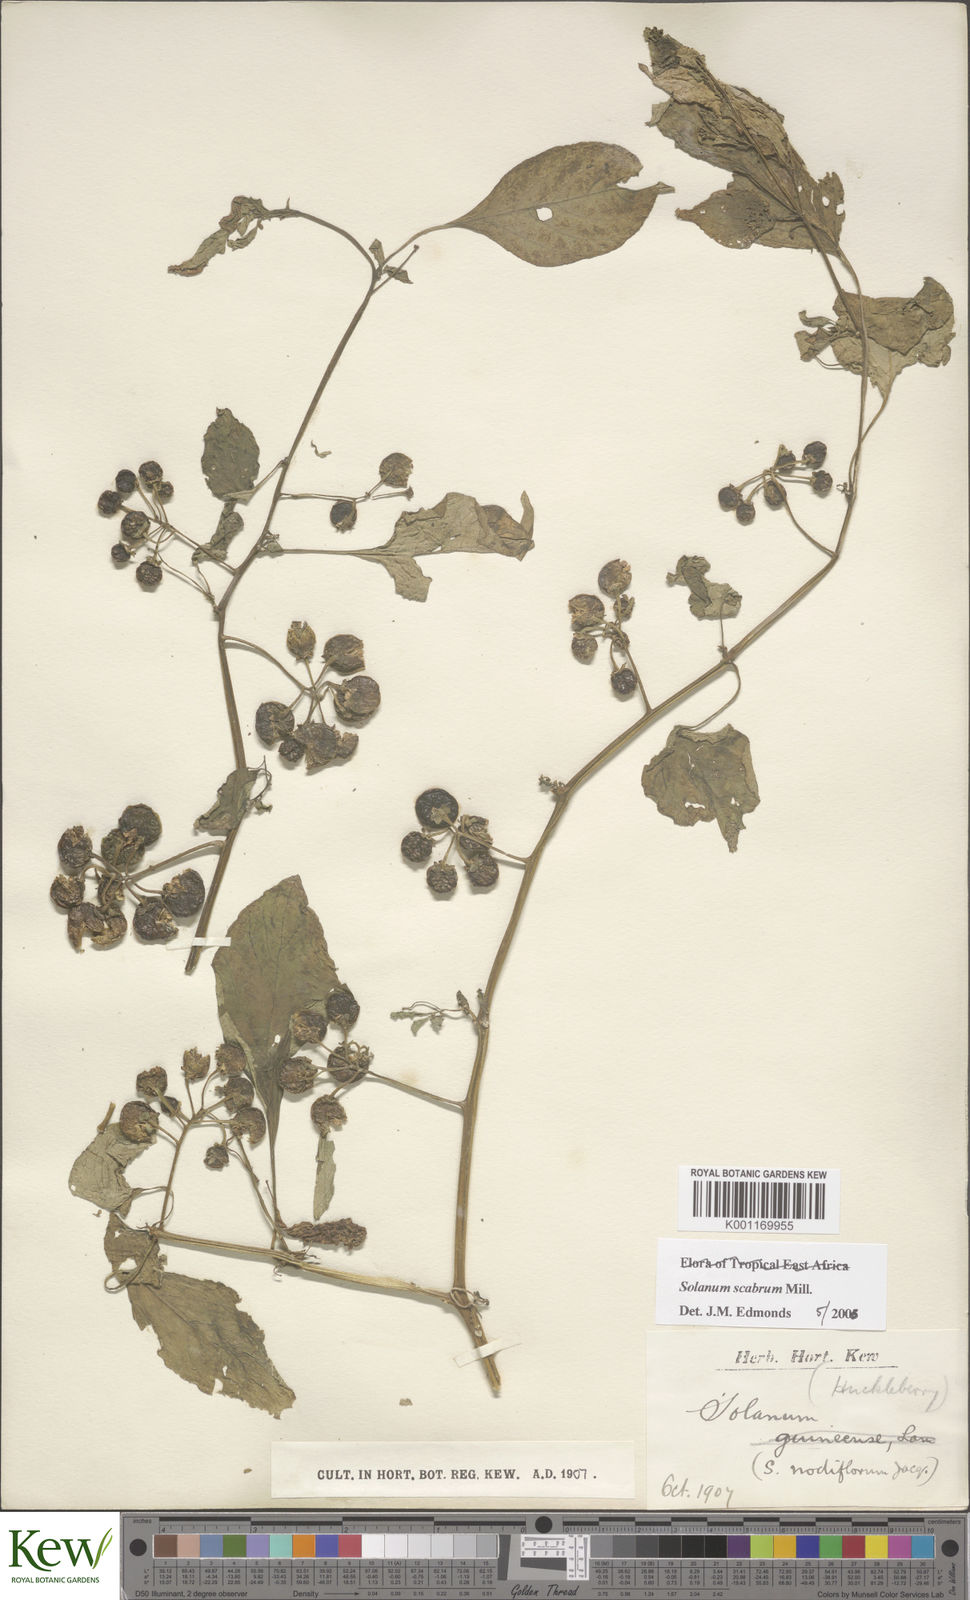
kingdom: Plantae
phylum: Tracheophyta
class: Magnoliopsida
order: Solanales
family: Solanaceae
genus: Solanum
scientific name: Solanum scabrum
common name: Garden-huckleberry
